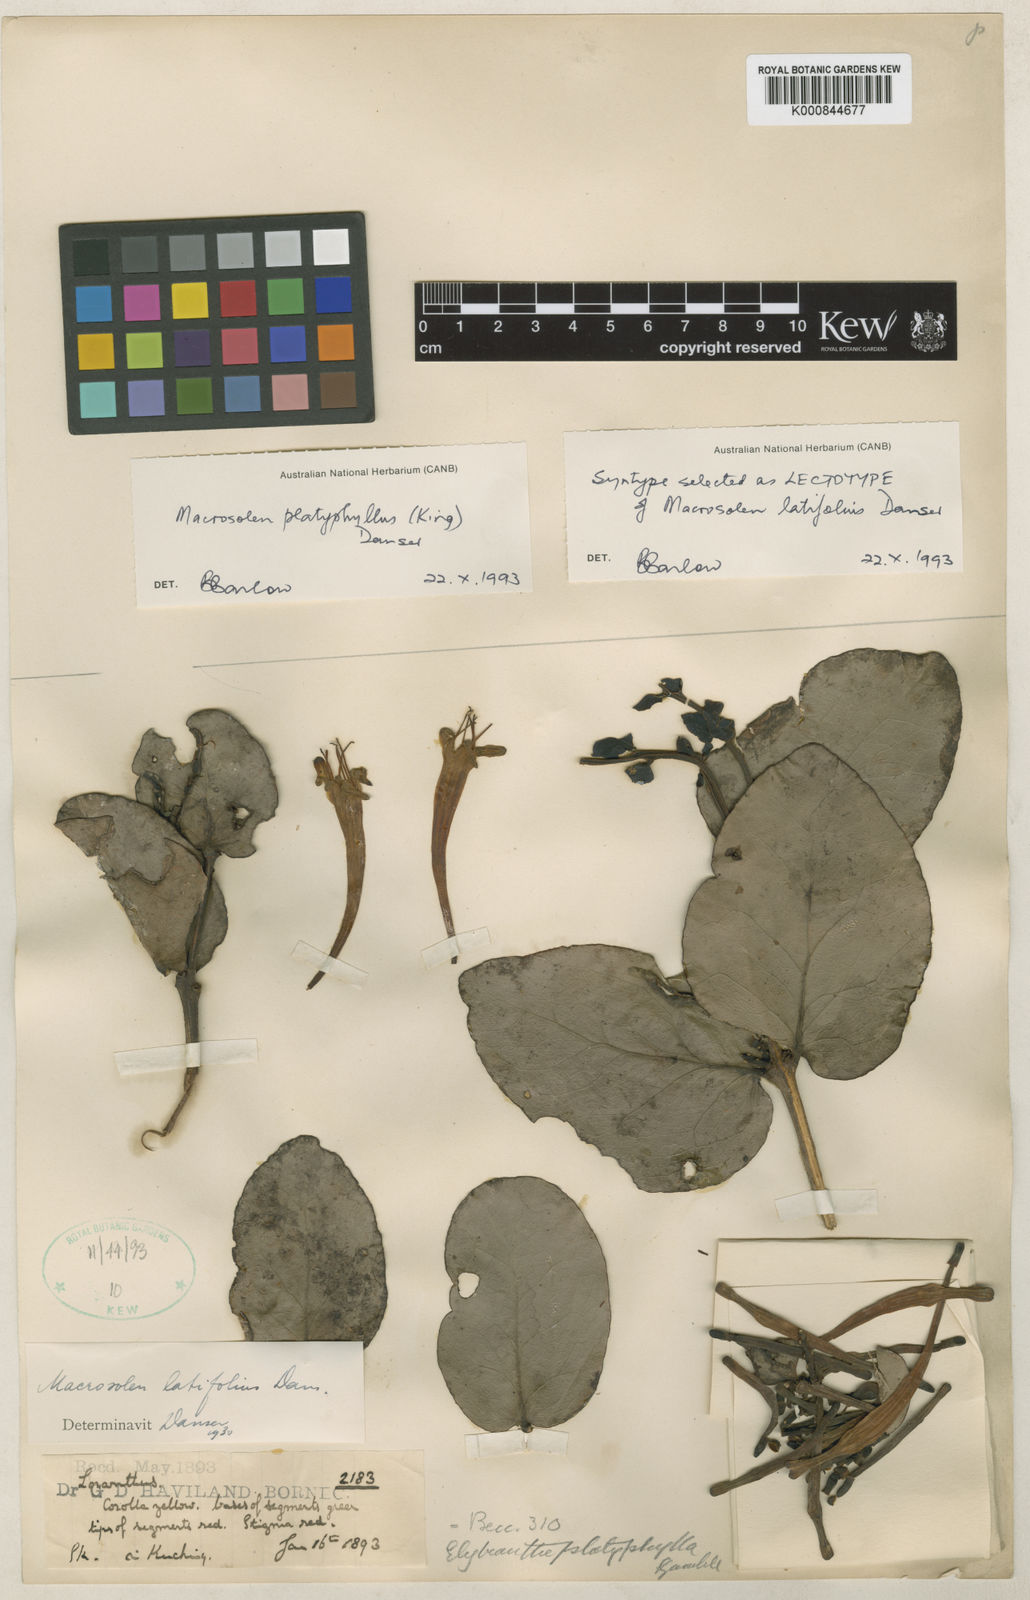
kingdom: Plantae
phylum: Tracheophyta
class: Magnoliopsida
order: Santalales
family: Loranthaceae
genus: Macrosolen
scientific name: Macrosolen platyphyllus
